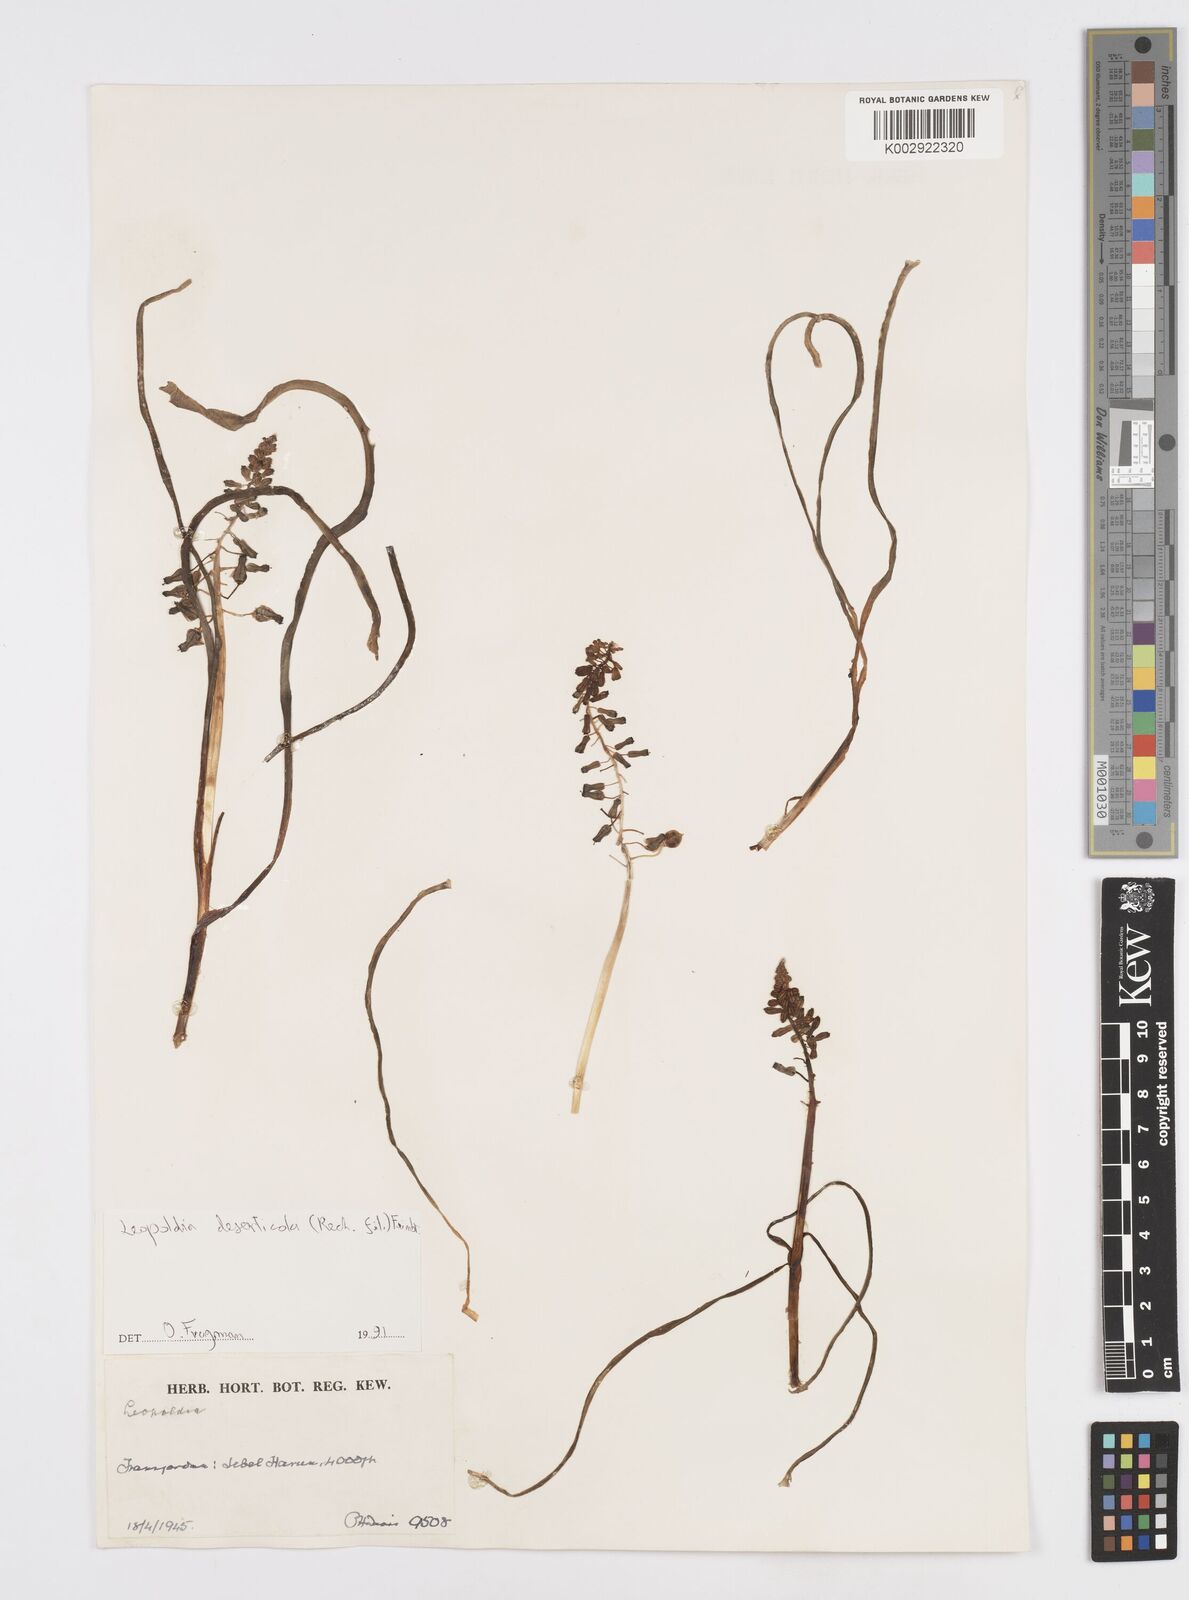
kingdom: Plantae
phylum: Tracheophyta
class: Liliopsida
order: Asparagales
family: Asparagaceae
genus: Muscari
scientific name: Muscari longipes
